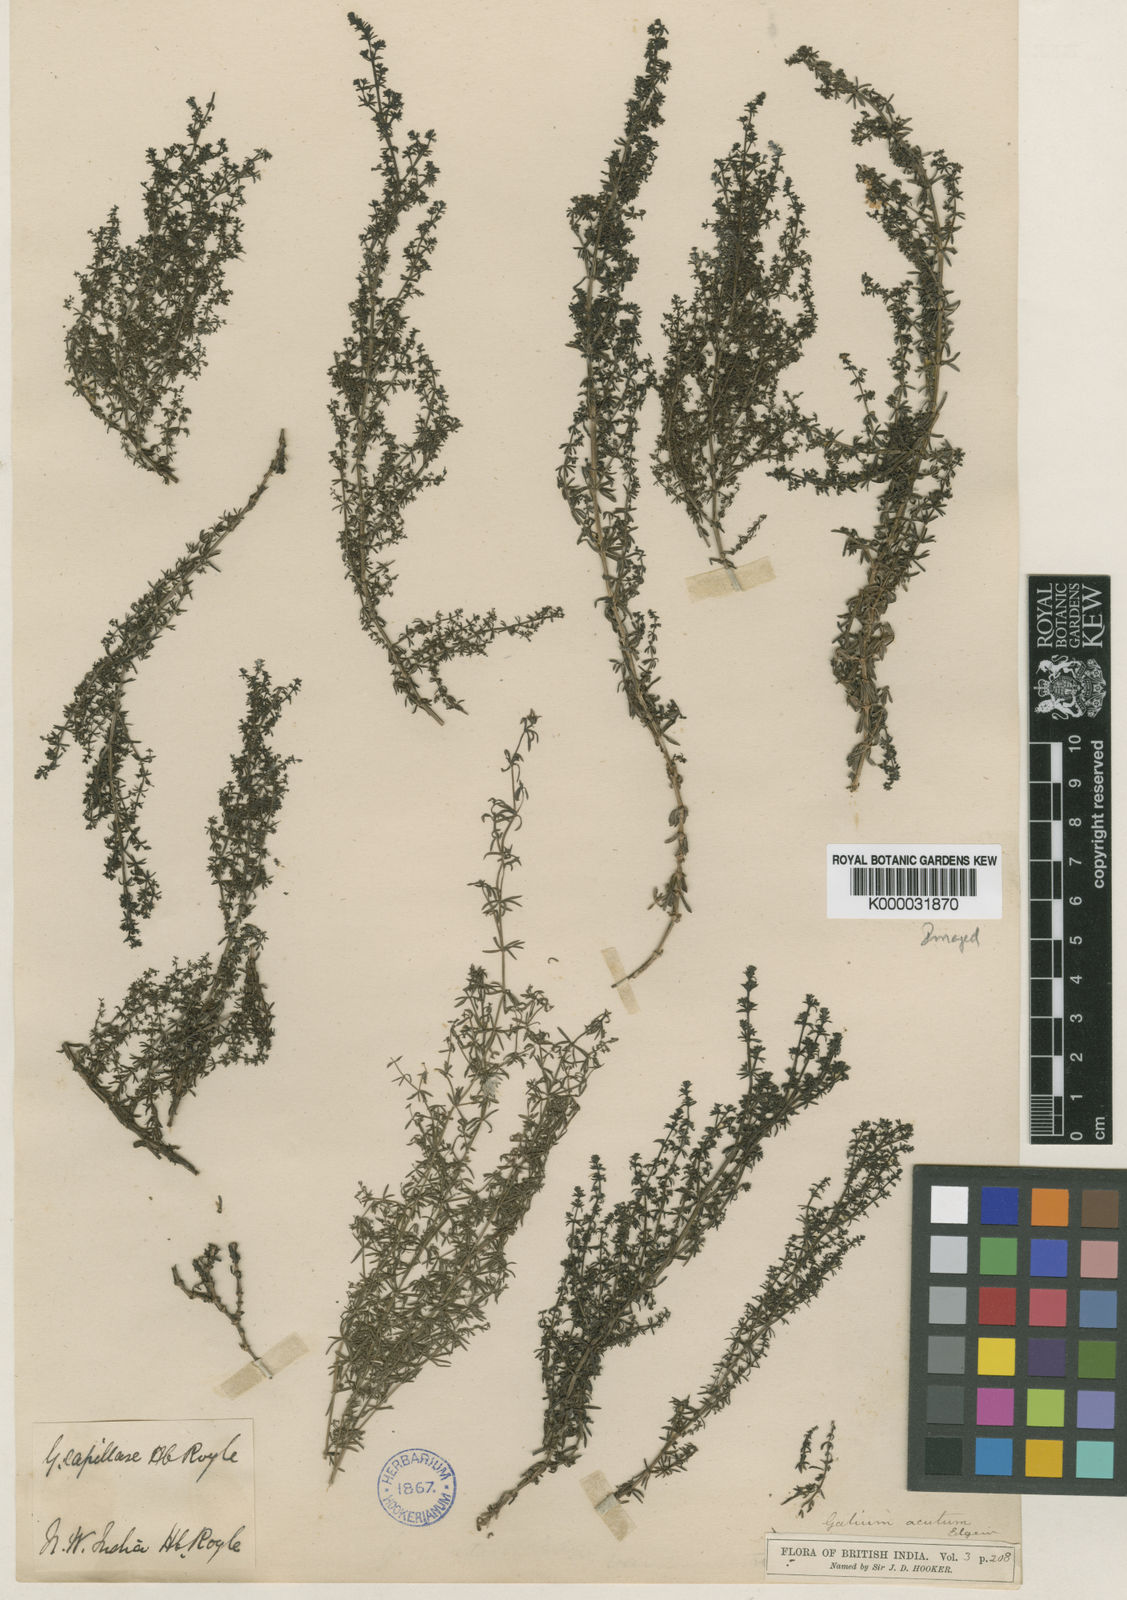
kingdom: Plantae
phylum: Tracheophyta
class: Magnoliopsida
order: Gentianales
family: Rubiaceae
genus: Galium
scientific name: Galium acutum
